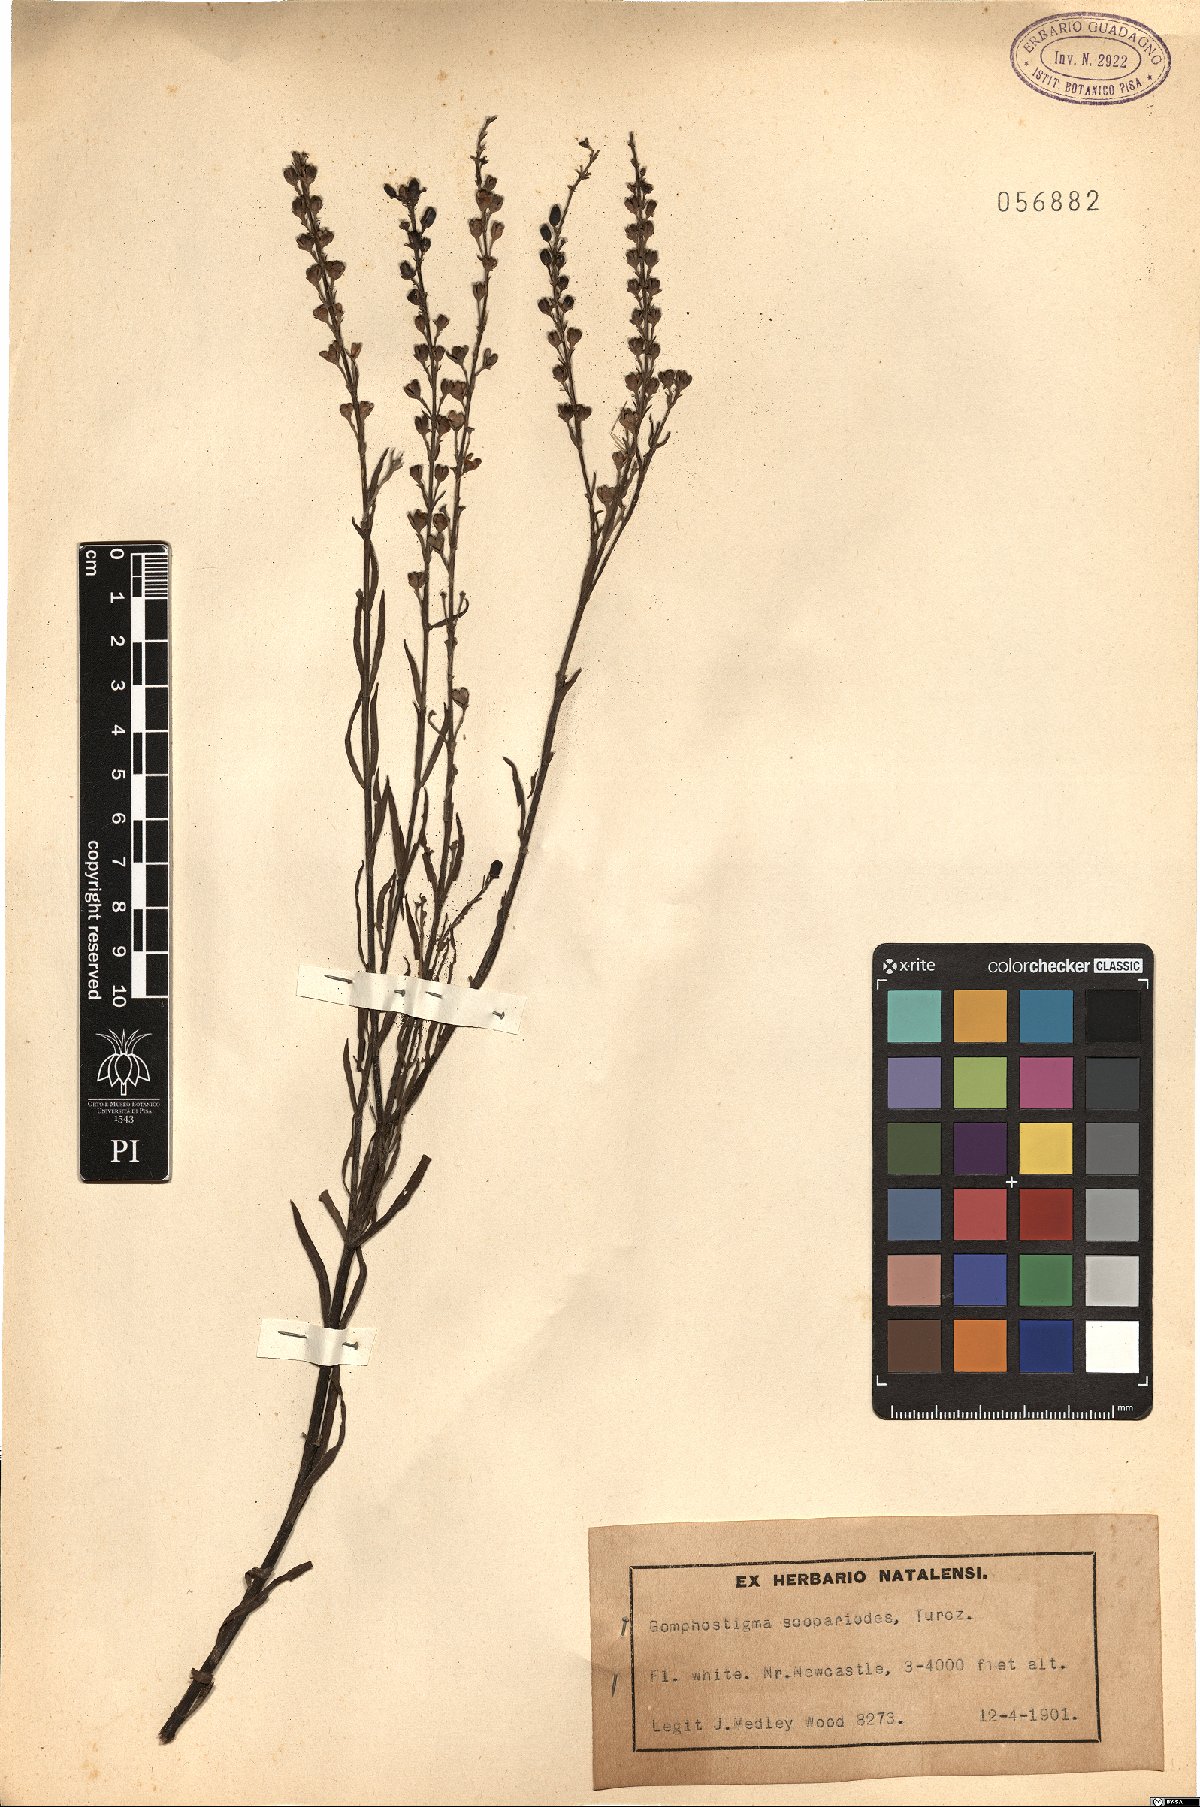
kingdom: Plantae
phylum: Tracheophyta
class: Magnoliopsida
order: Lamiales
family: Scrophulariaceae
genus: Buddleja
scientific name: Buddleja virgata
